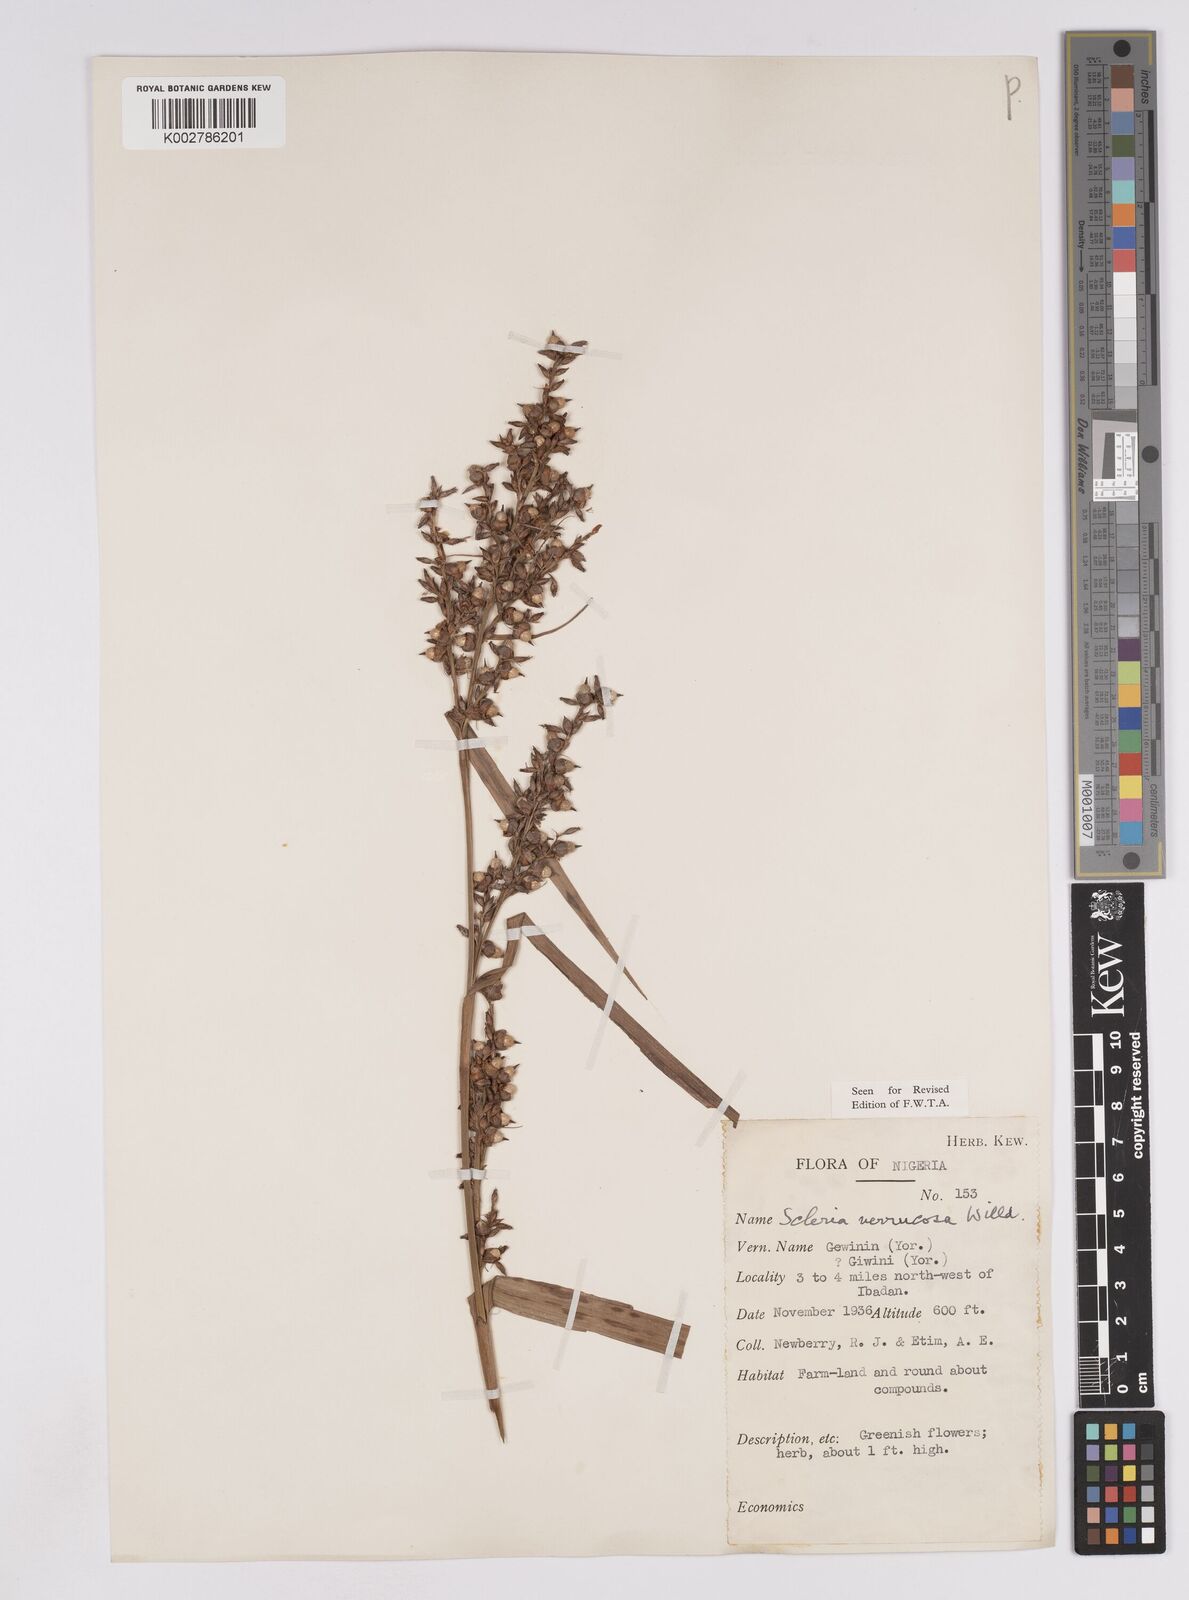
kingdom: Plantae
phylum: Tracheophyta
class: Liliopsida
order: Poales
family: Cyperaceae
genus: Scleria
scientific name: Scleria verrucosa
